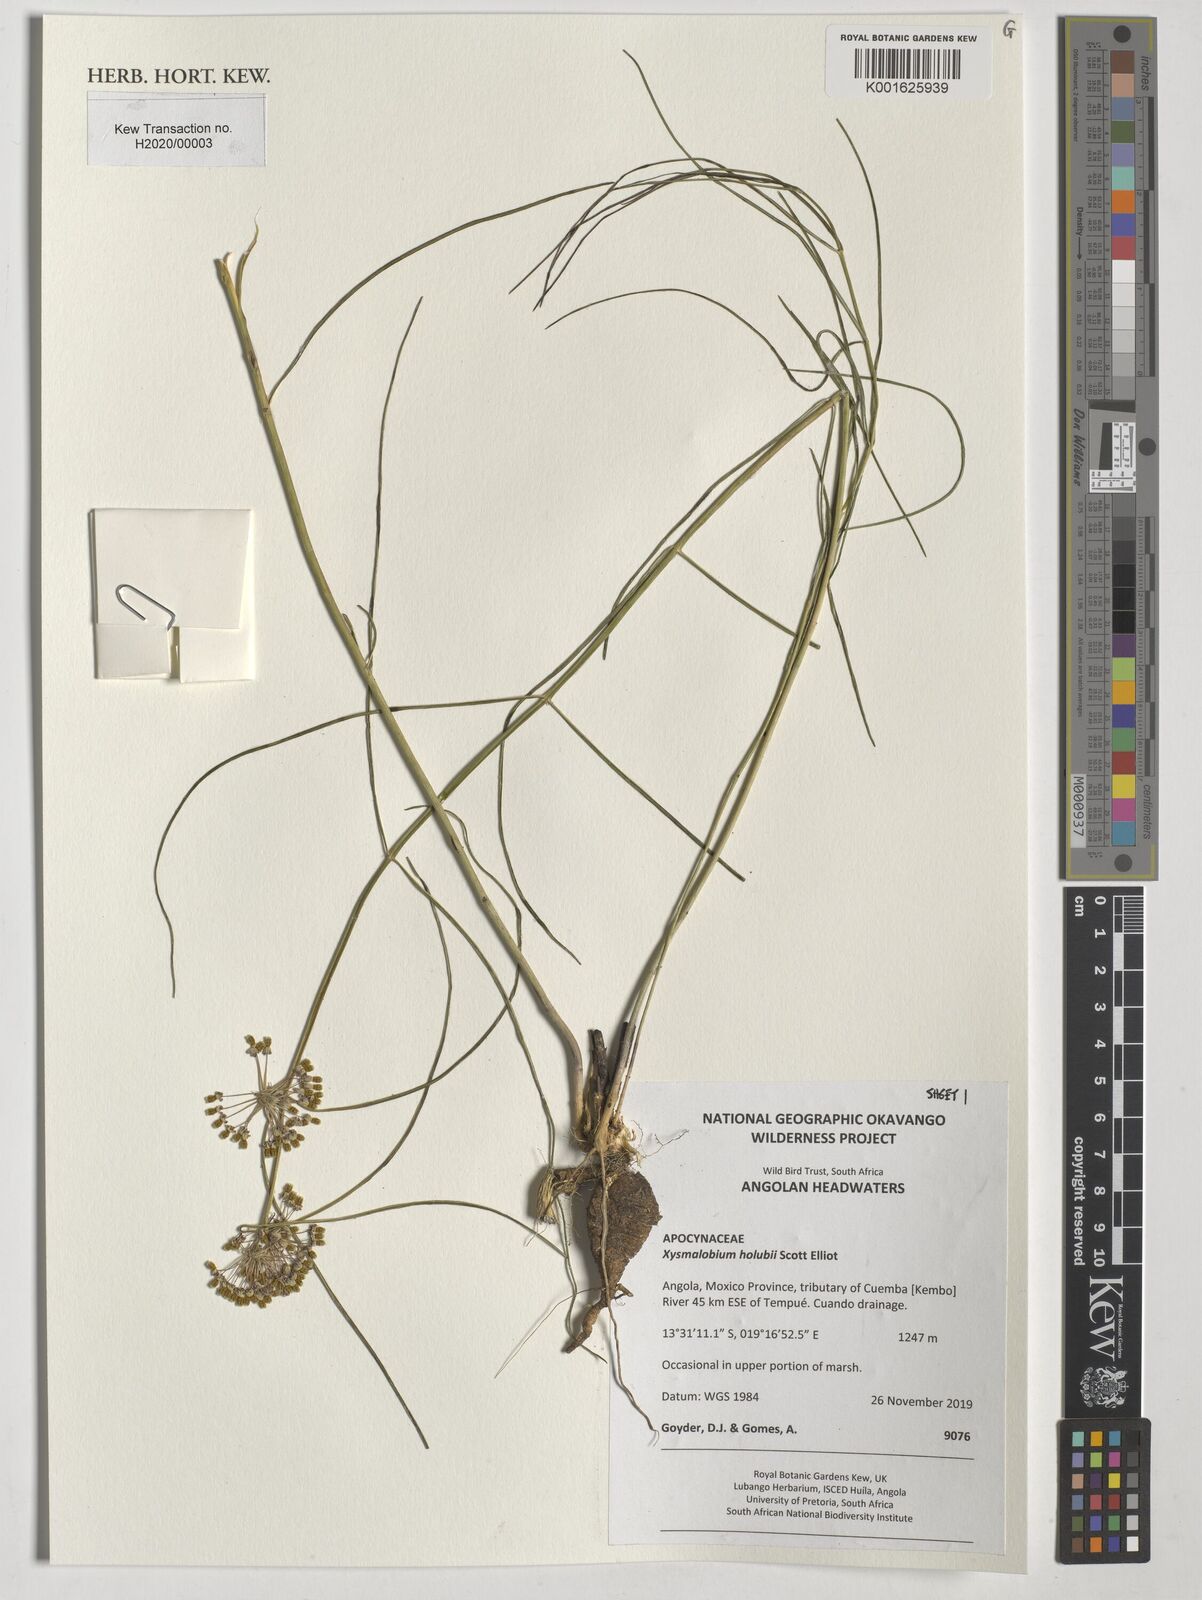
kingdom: Plantae
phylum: Tracheophyta
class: Magnoliopsida
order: Gentianales
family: Apocynaceae
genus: Xysmalobium
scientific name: Xysmalobium holubii
